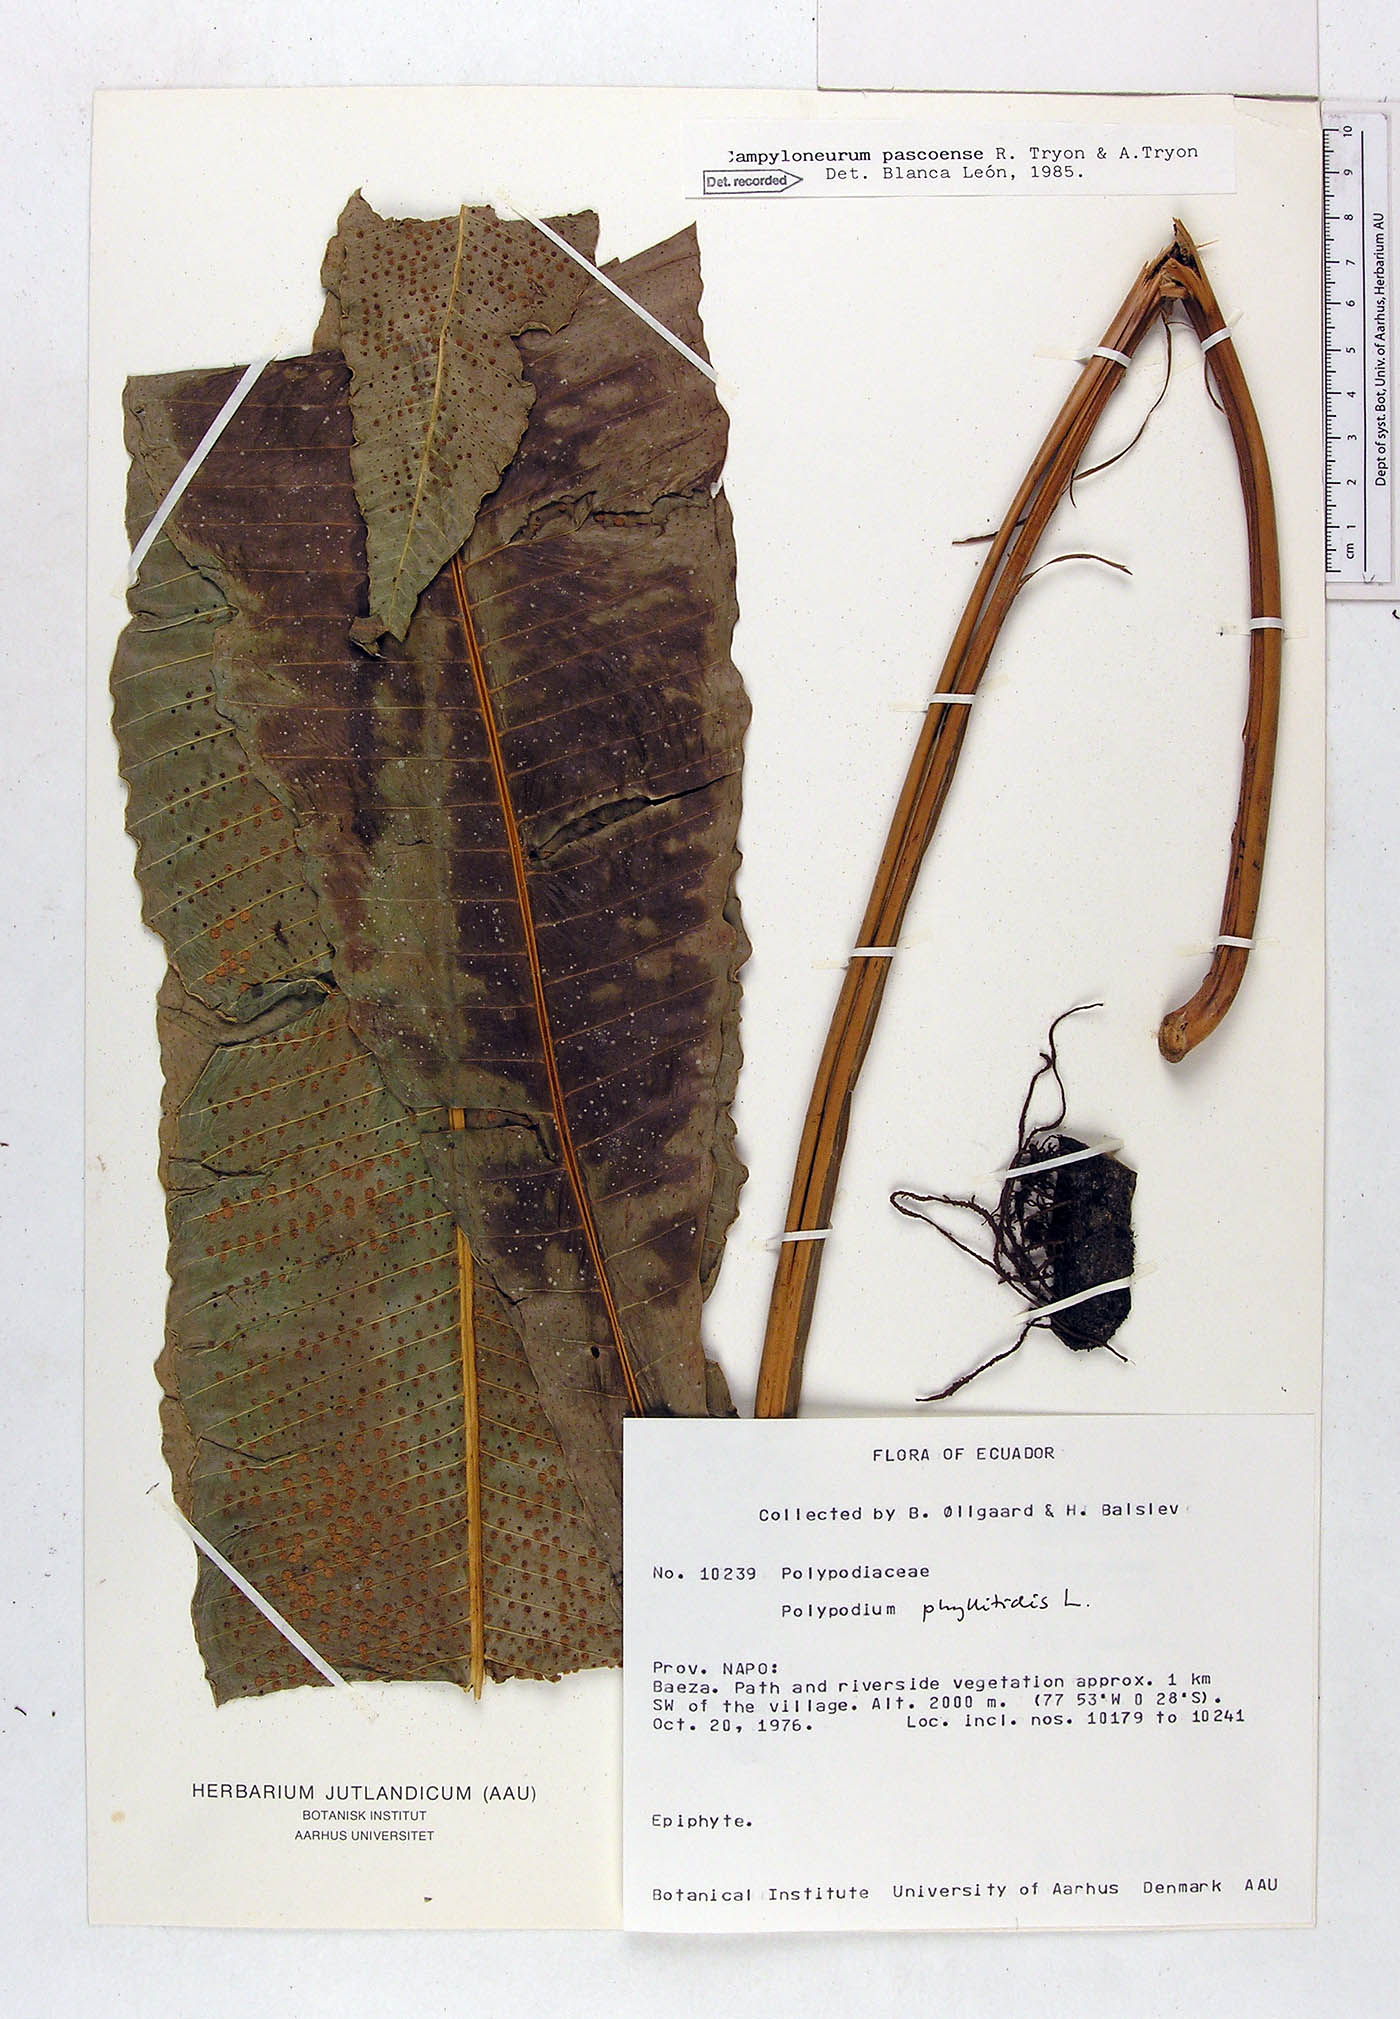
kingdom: Plantae
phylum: Tracheophyta
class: Polypodiopsida
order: Polypodiales
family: Polypodiaceae
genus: Campyloneurum
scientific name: Campyloneurum pascoense
